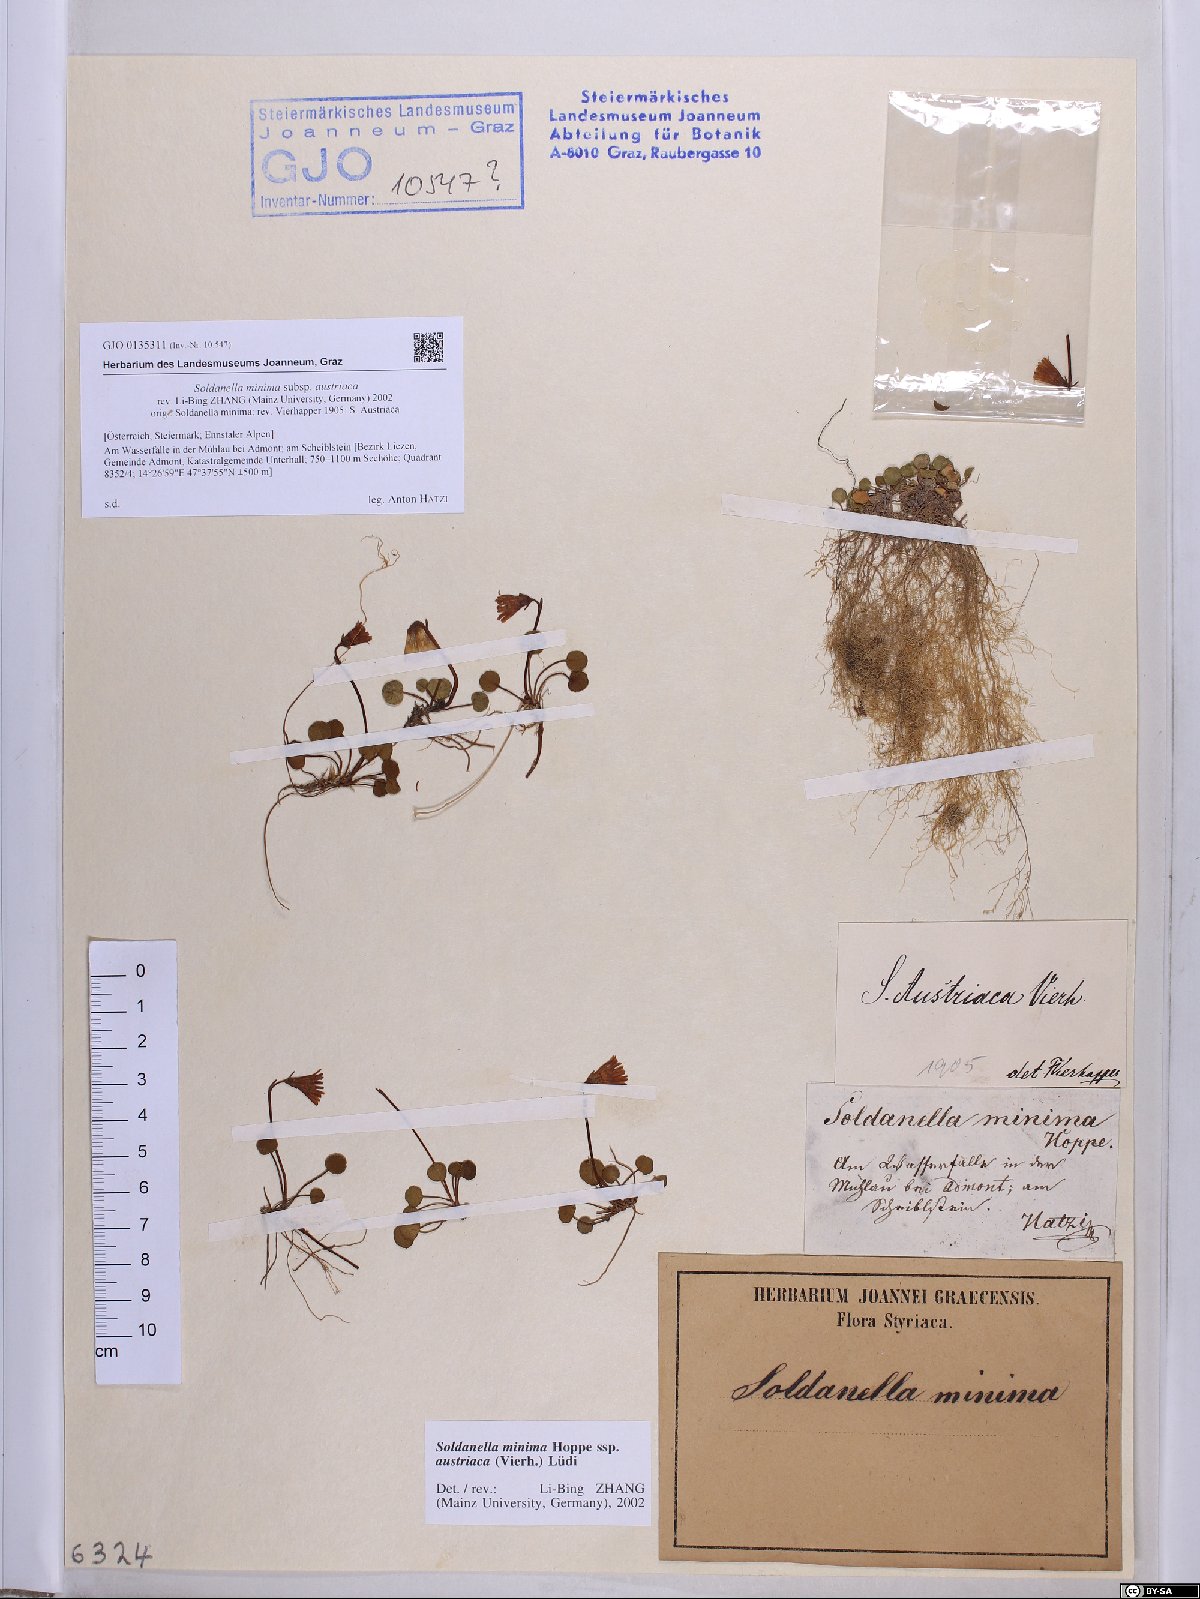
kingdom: Plantae
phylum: Tracheophyta
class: Magnoliopsida
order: Ericales
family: Primulaceae
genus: Soldanella
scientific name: Soldanella austriaca
